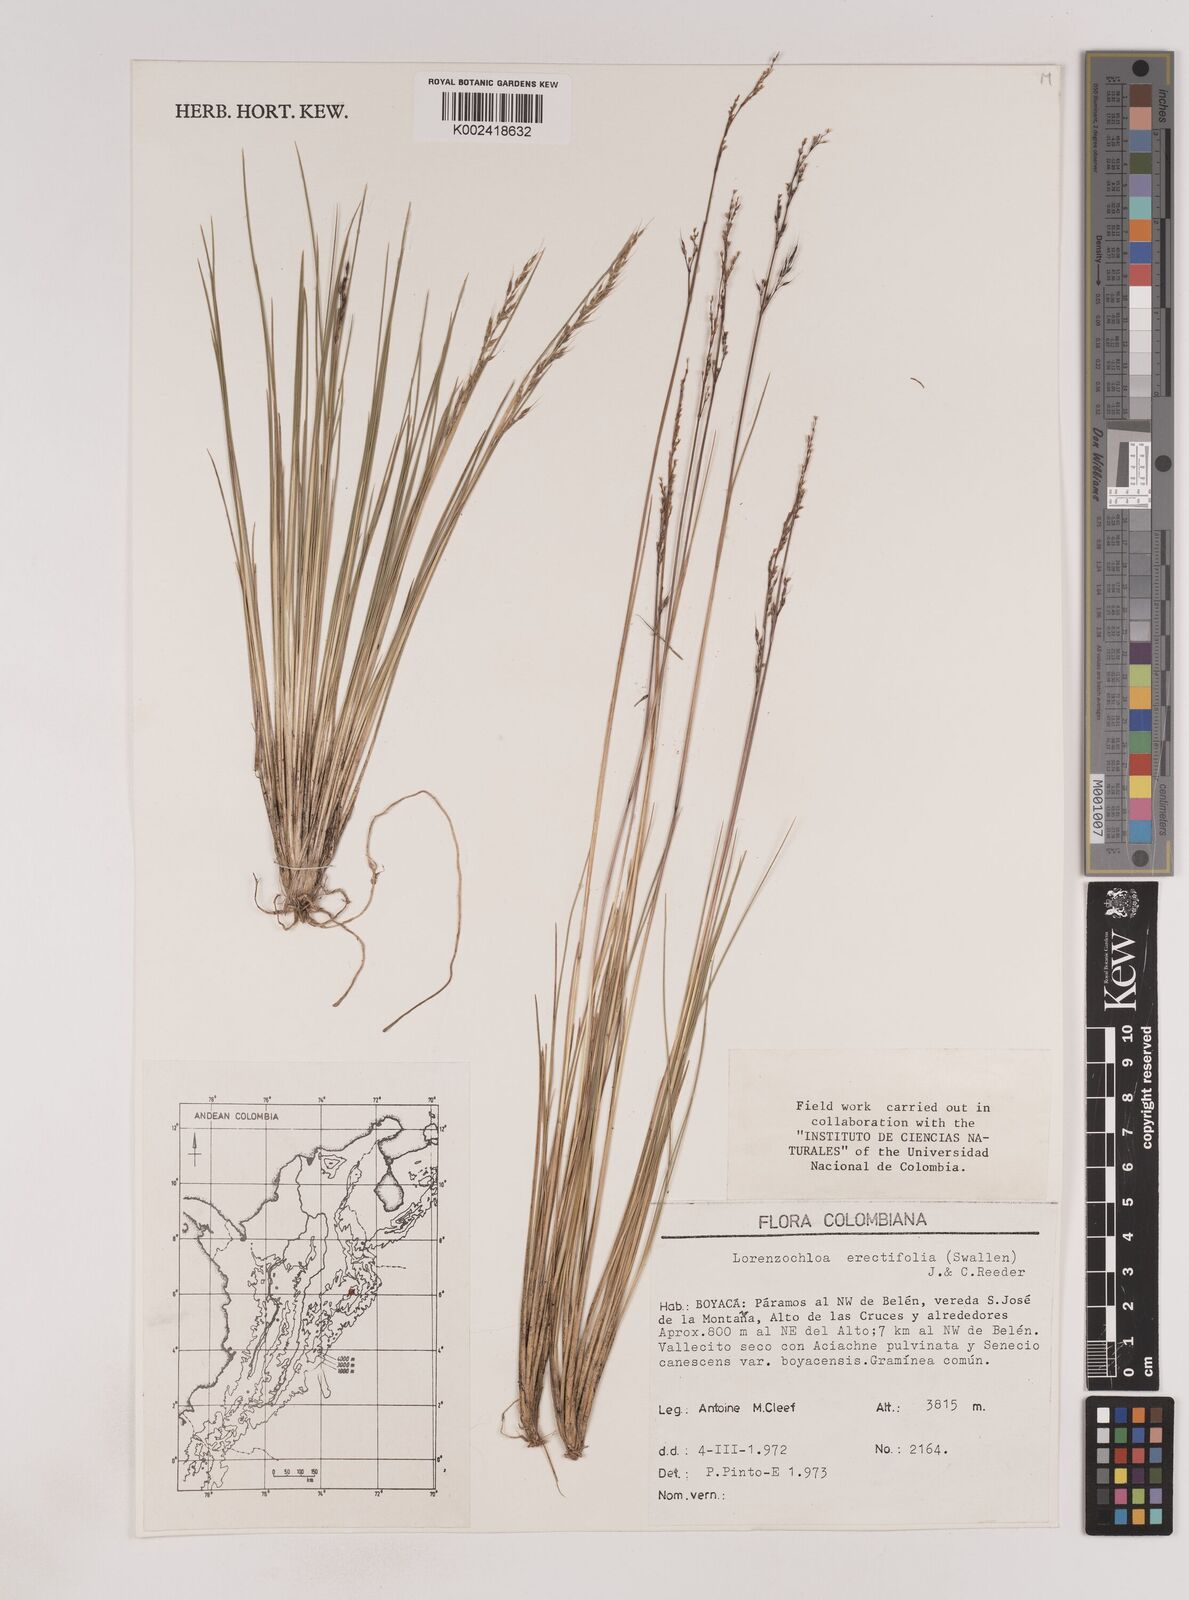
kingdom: Plantae
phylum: Tracheophyta
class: Liliopsida
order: Poales
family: Poaceae
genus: Lorenzochloa
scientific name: Lorenzochloa erectifolia
